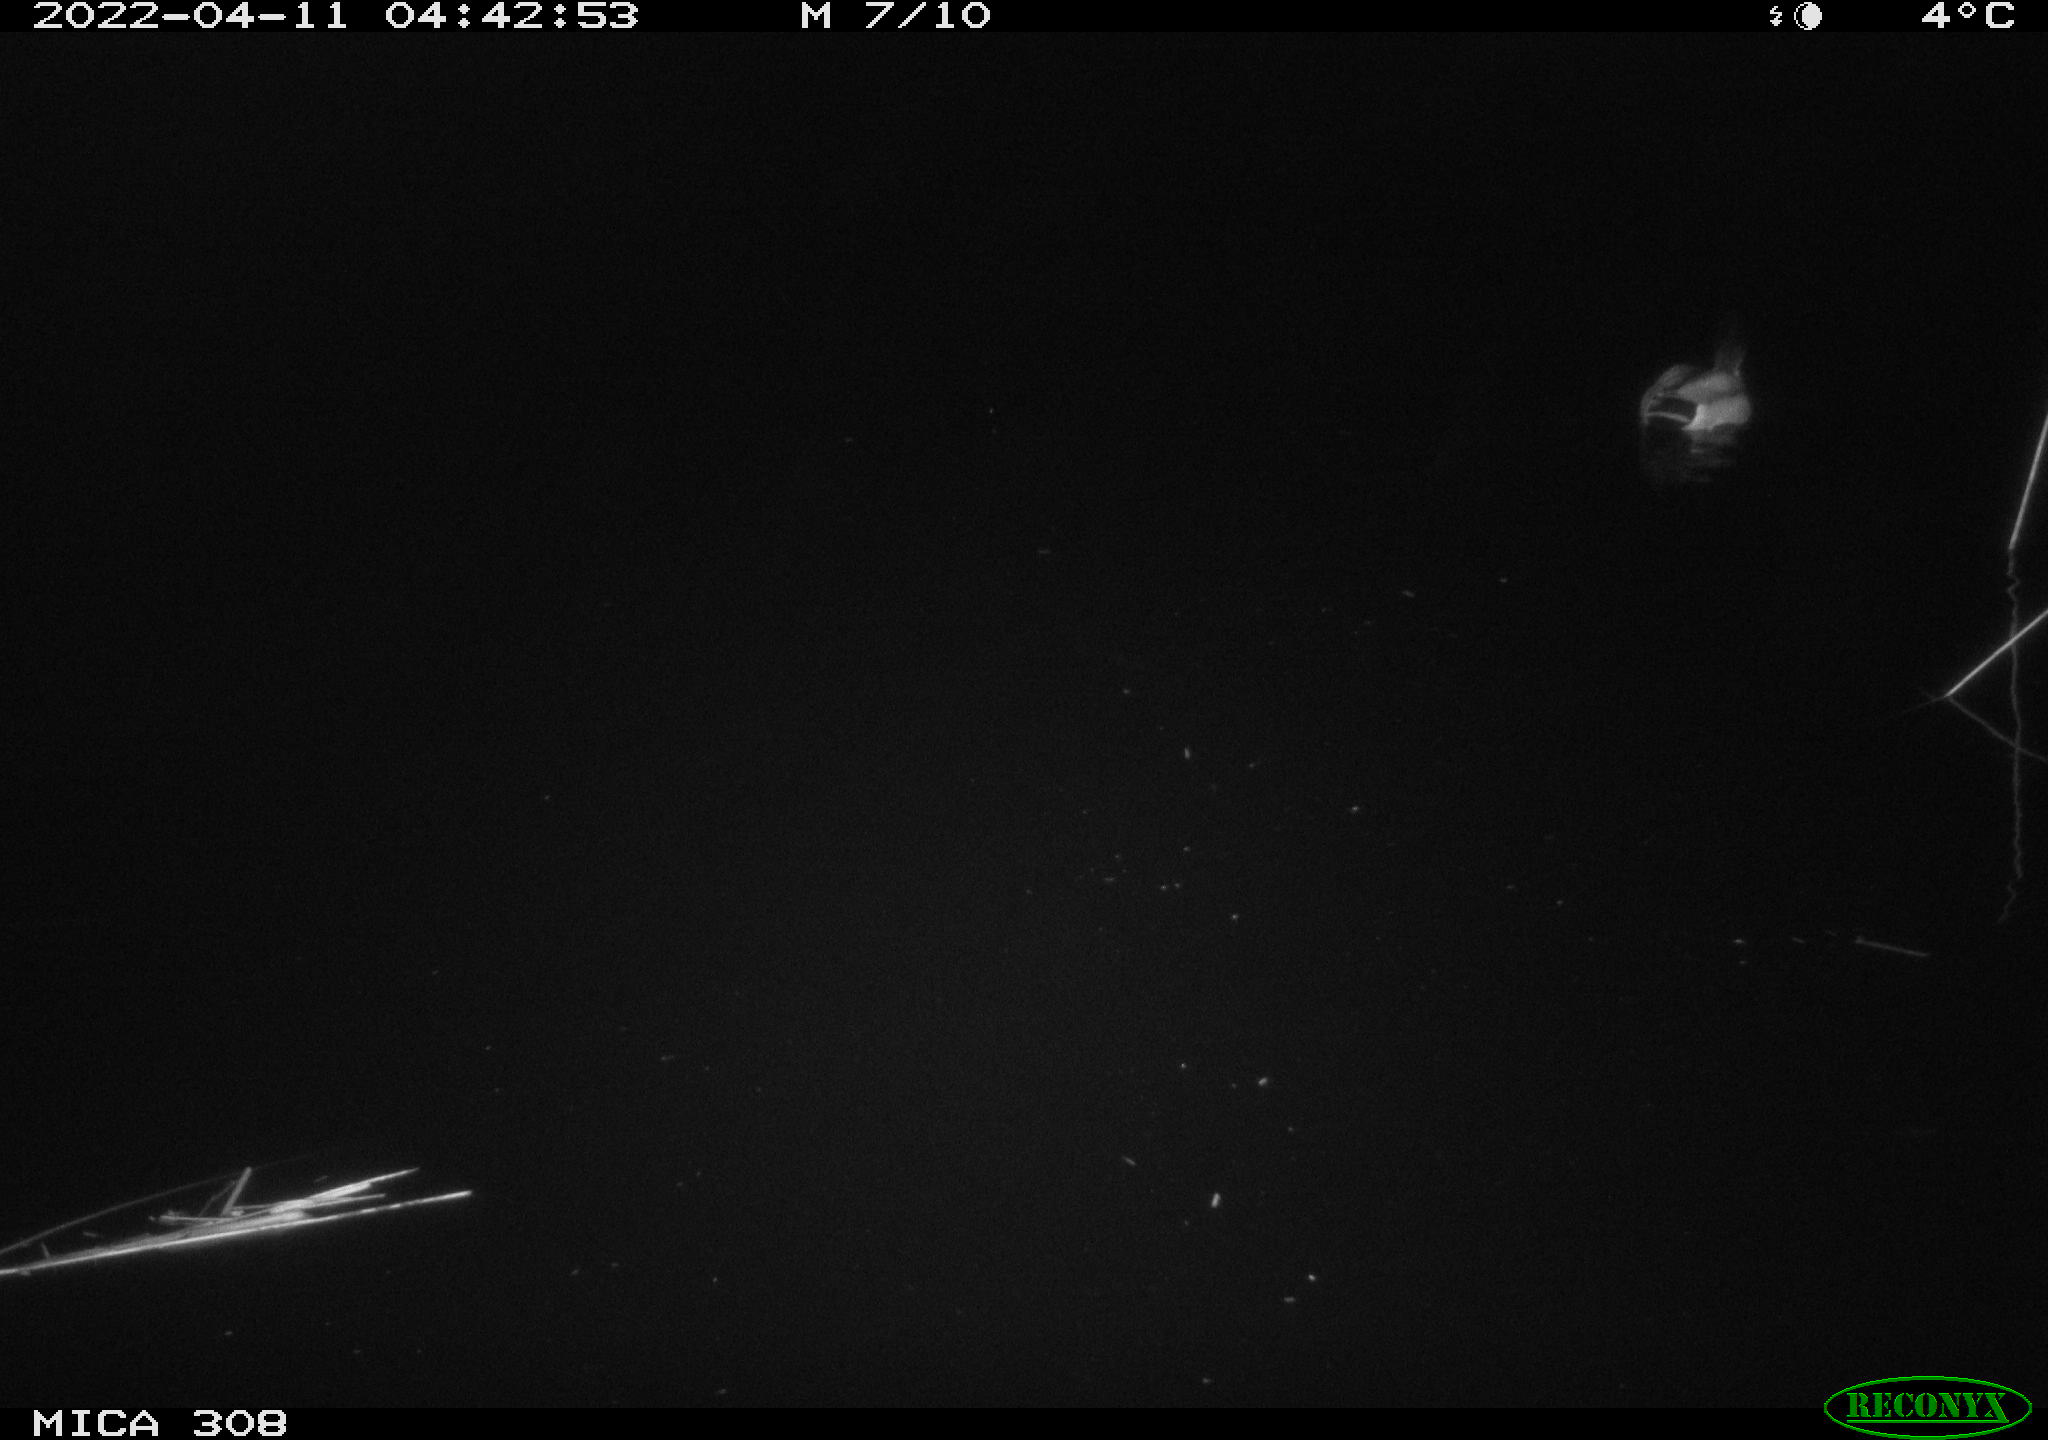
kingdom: Animalia
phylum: Chordata
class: Aves
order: Anseriformes
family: Anatidae
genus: Anas
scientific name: Anas platyrhynchos
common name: Mallard
